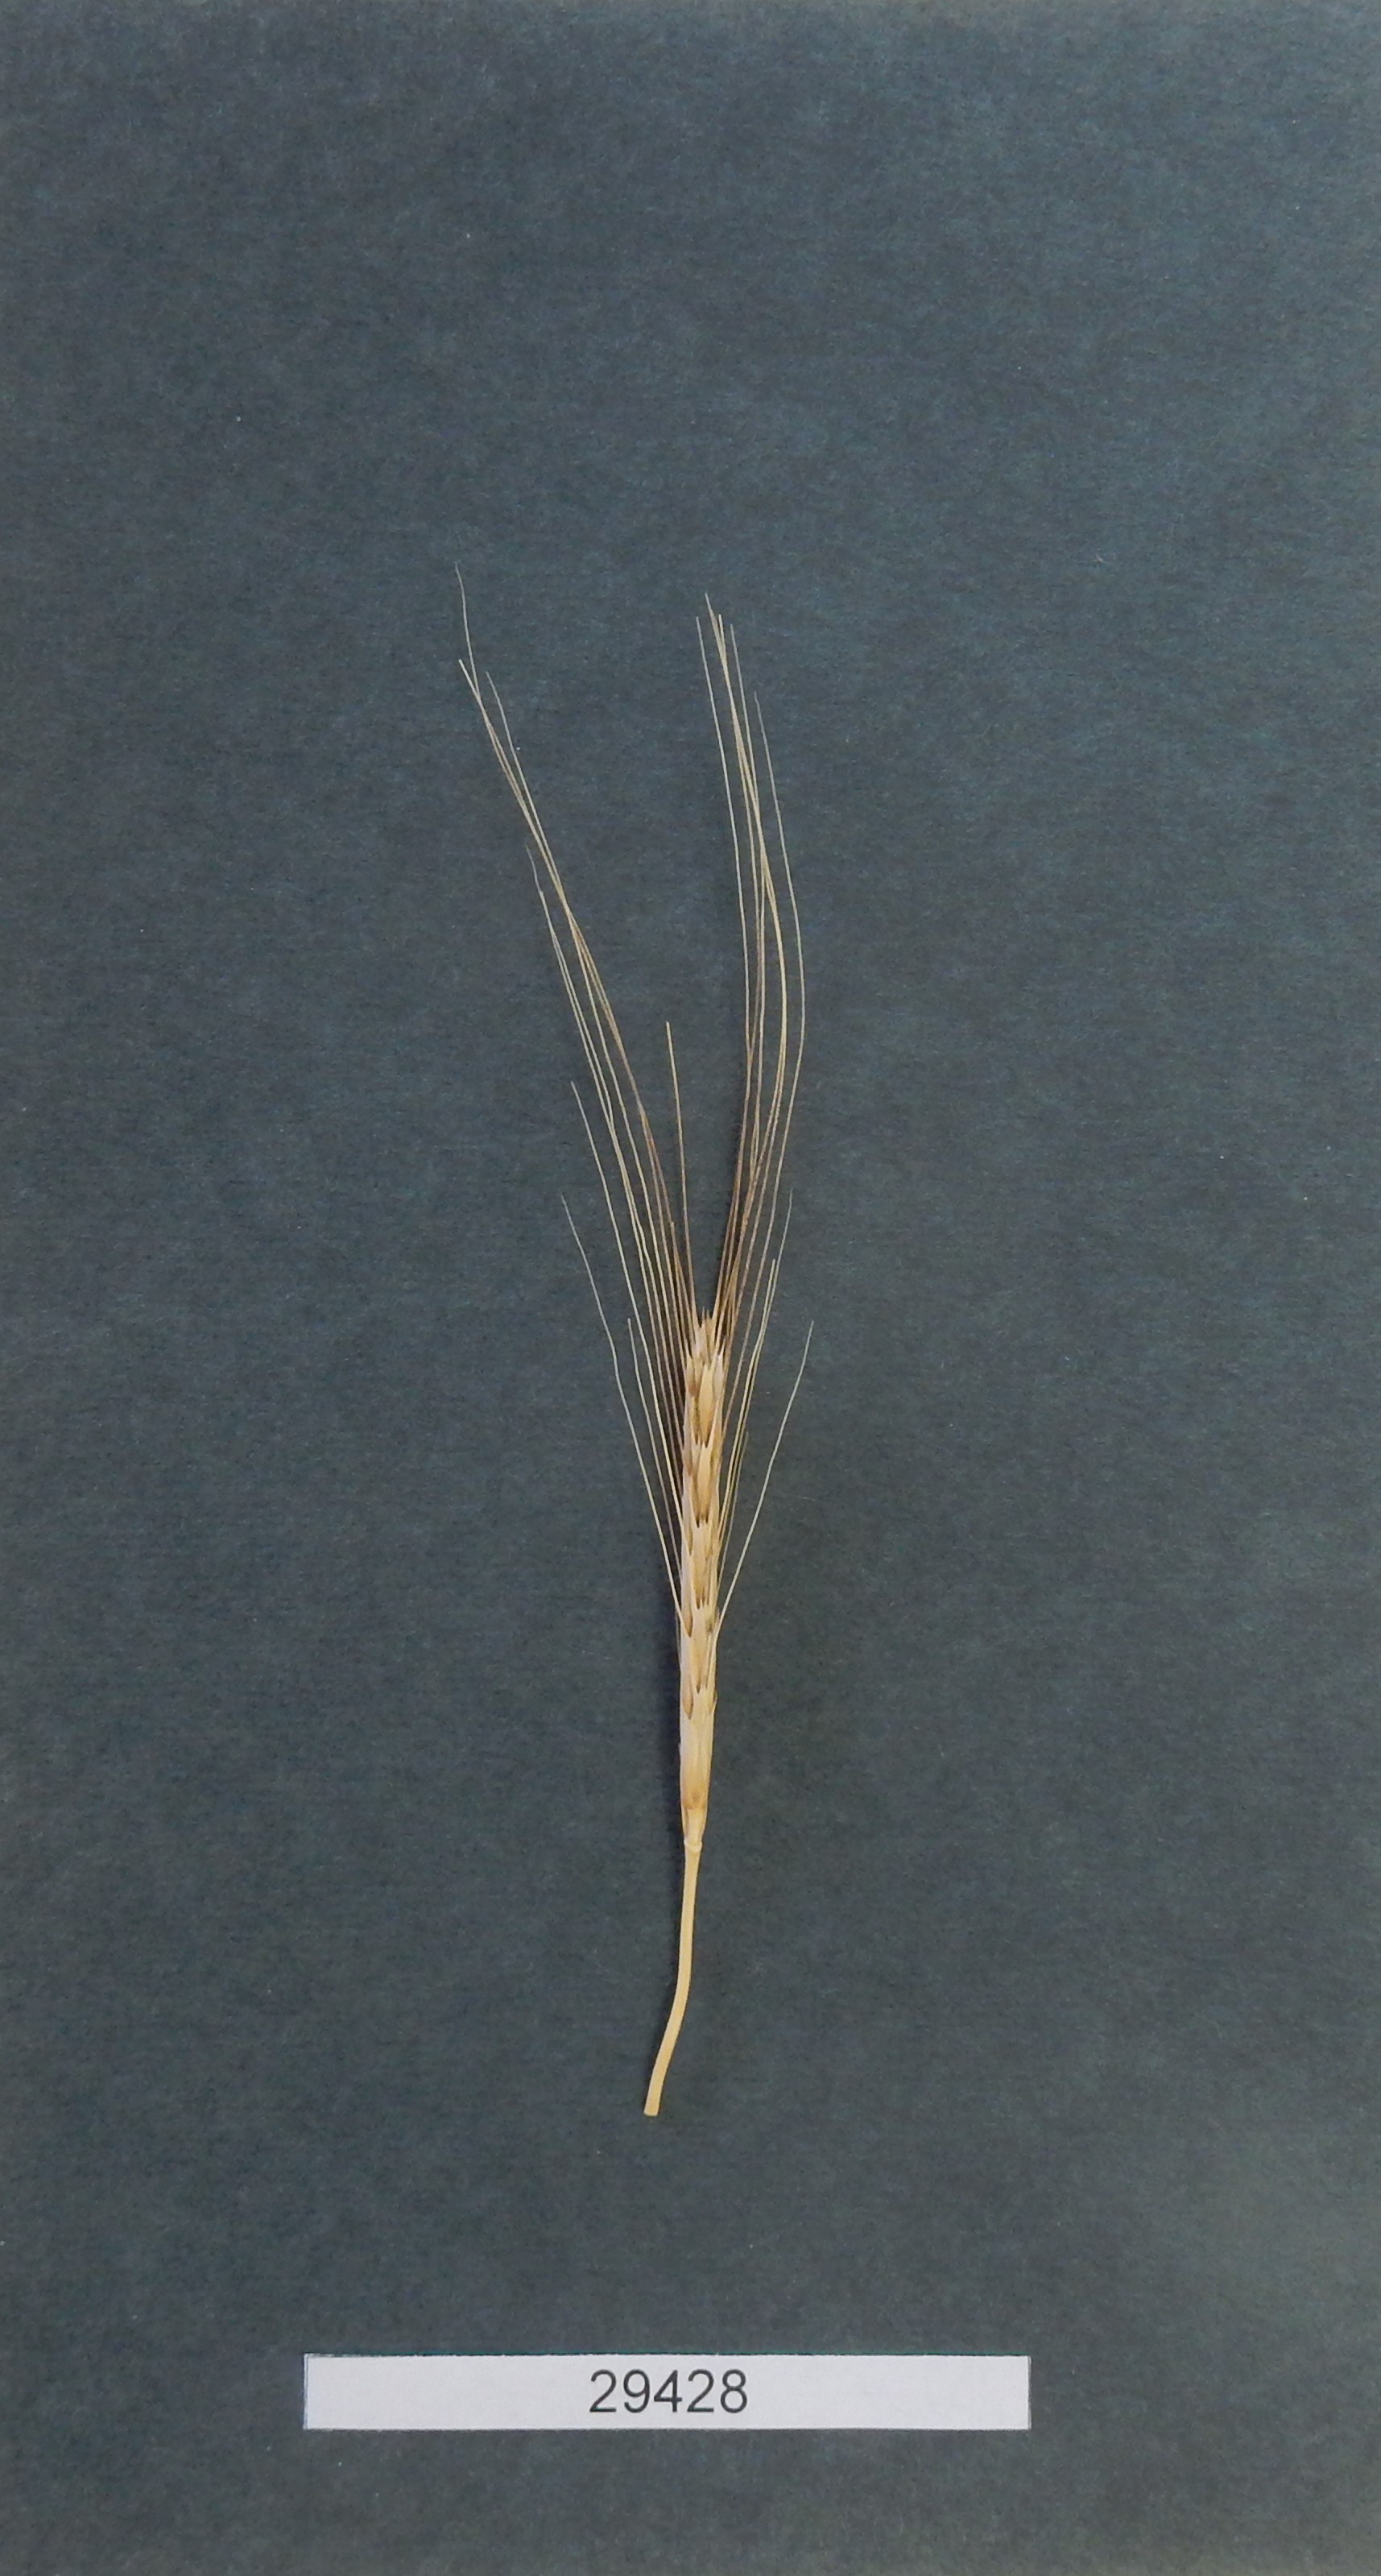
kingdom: Plantae
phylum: Tracheophyta
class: Liliopsida
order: Poales
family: Poaceae
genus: Triticum
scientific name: Triticum urartu
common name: Red wild einkorn
